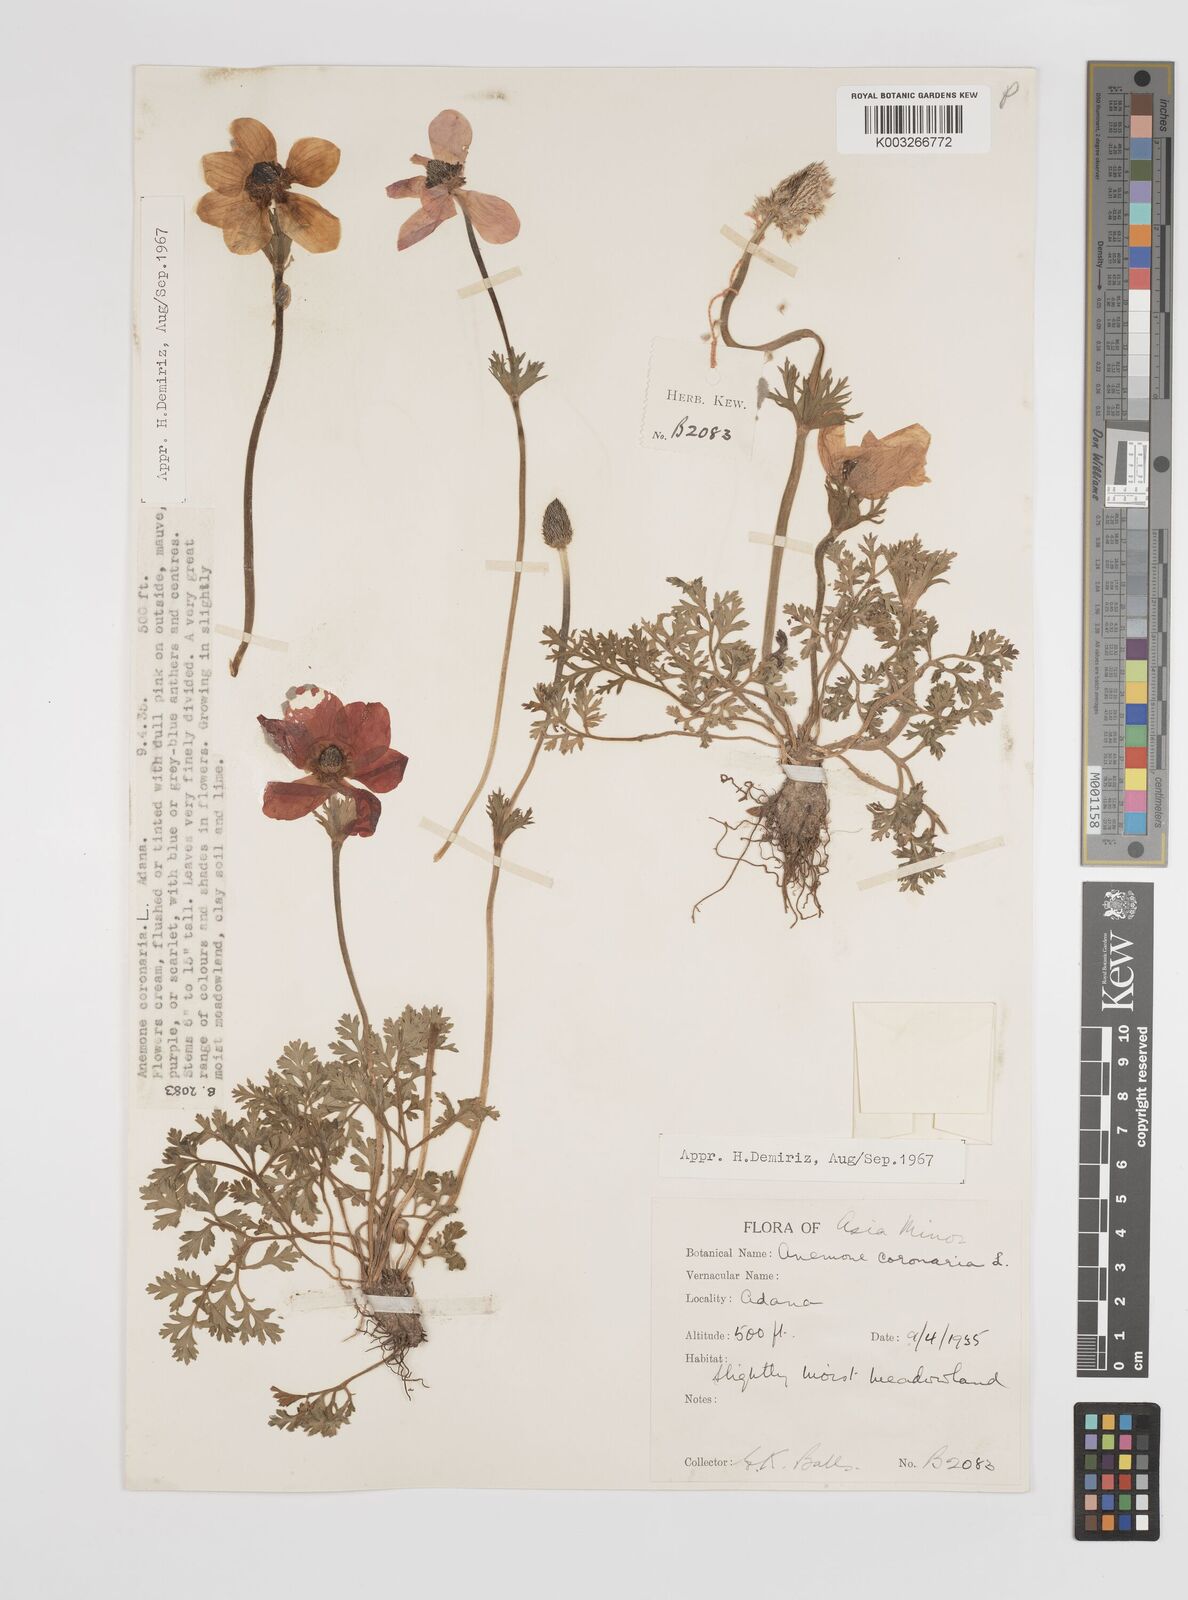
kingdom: Plantae
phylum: Tracheophyta
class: Magnoliopsida
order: Ranunculales
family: Ranunculaceae
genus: Anemone
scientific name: Anemone coronaria
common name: Poppy anemone
